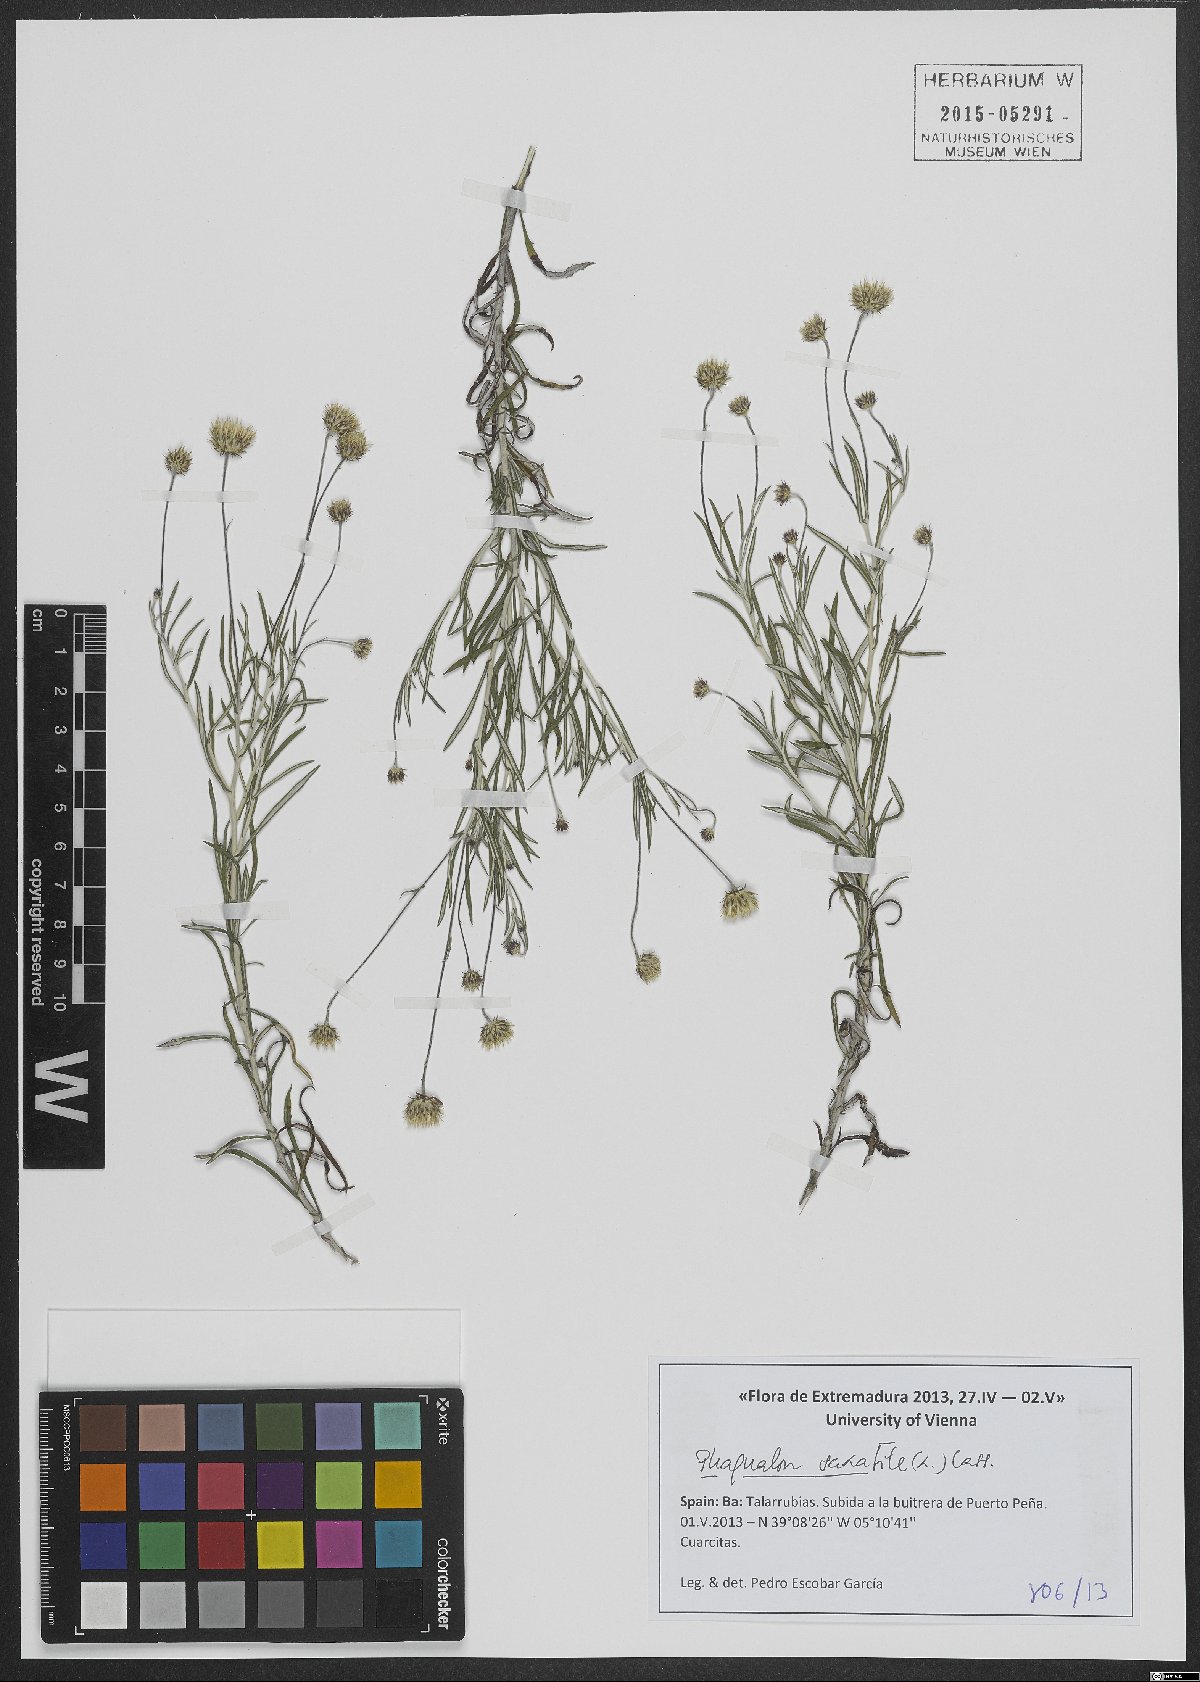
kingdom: Plantae
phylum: Tracheophyta
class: Magnoliopsida
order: Asterales
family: Asteraceae
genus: Phagnalon
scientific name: Phagnalon rupestre
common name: Rock phagnalon
